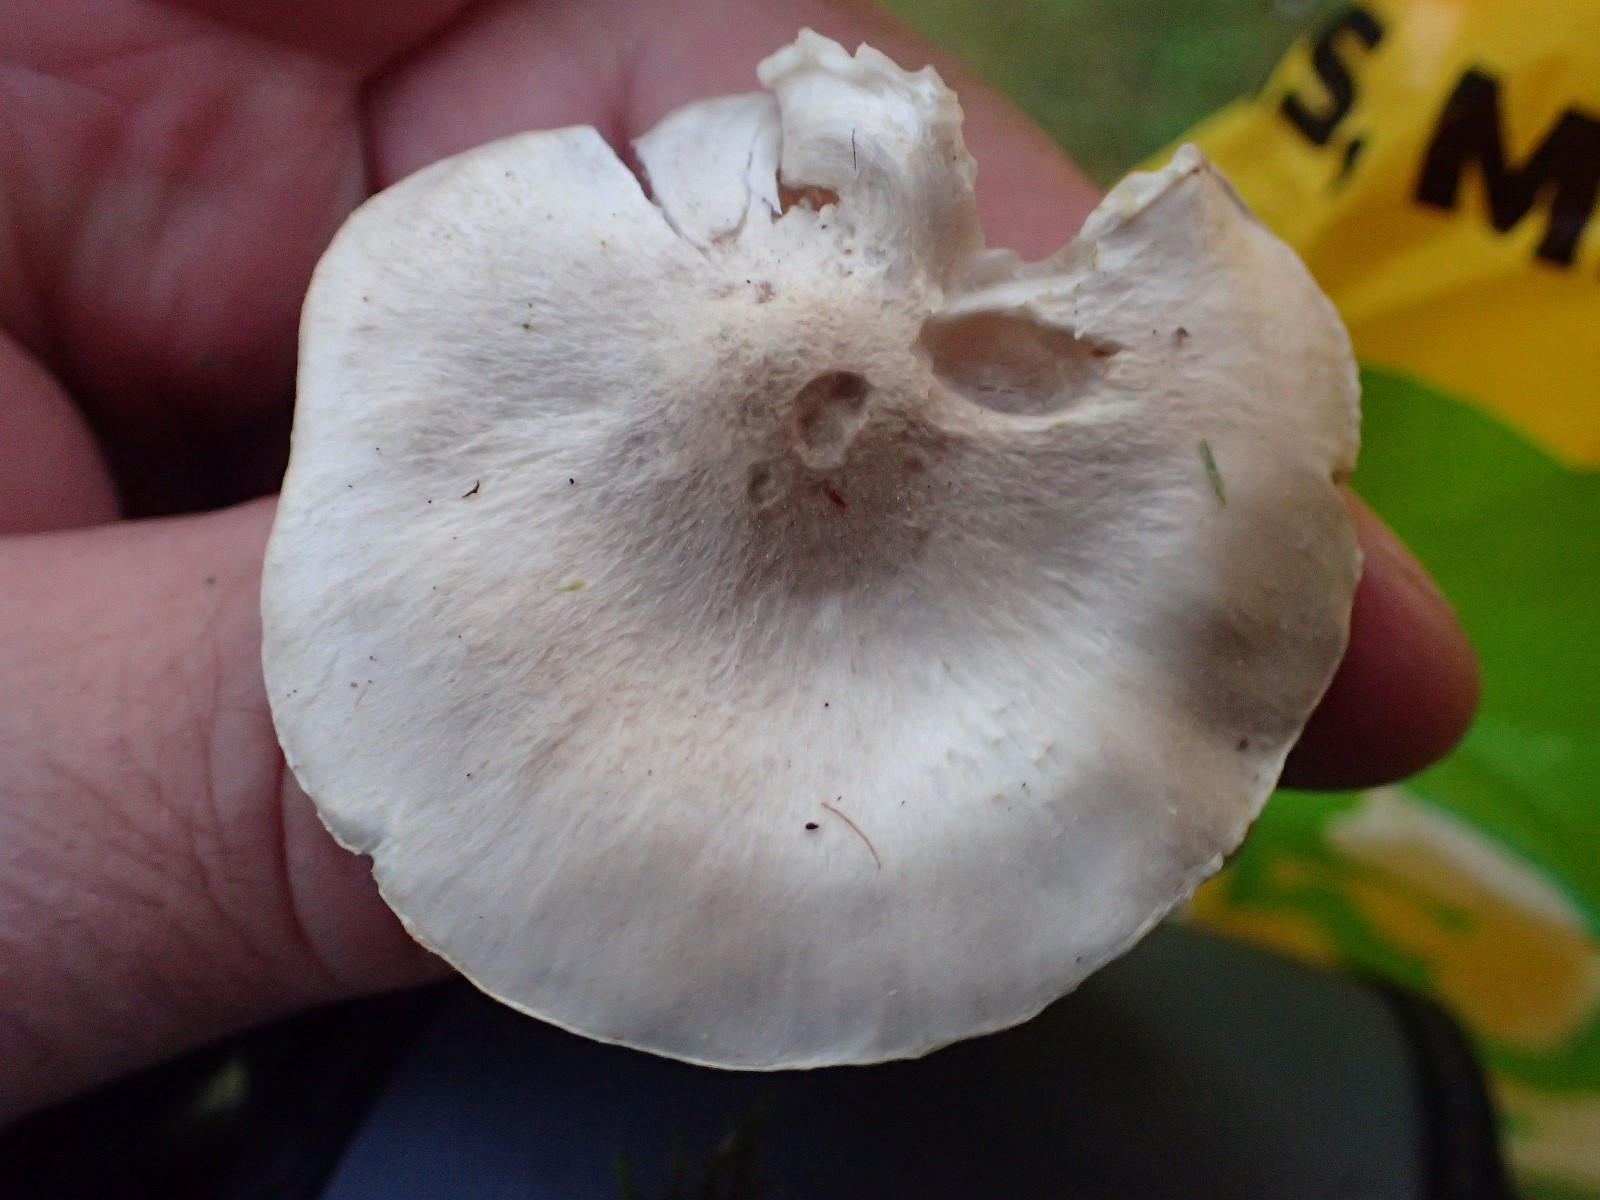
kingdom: Fungi
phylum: Basidiomycota
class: Agaricomycetes
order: Agaricales
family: Tricholomataceae
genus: Tricholoma
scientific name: Tricholoma
